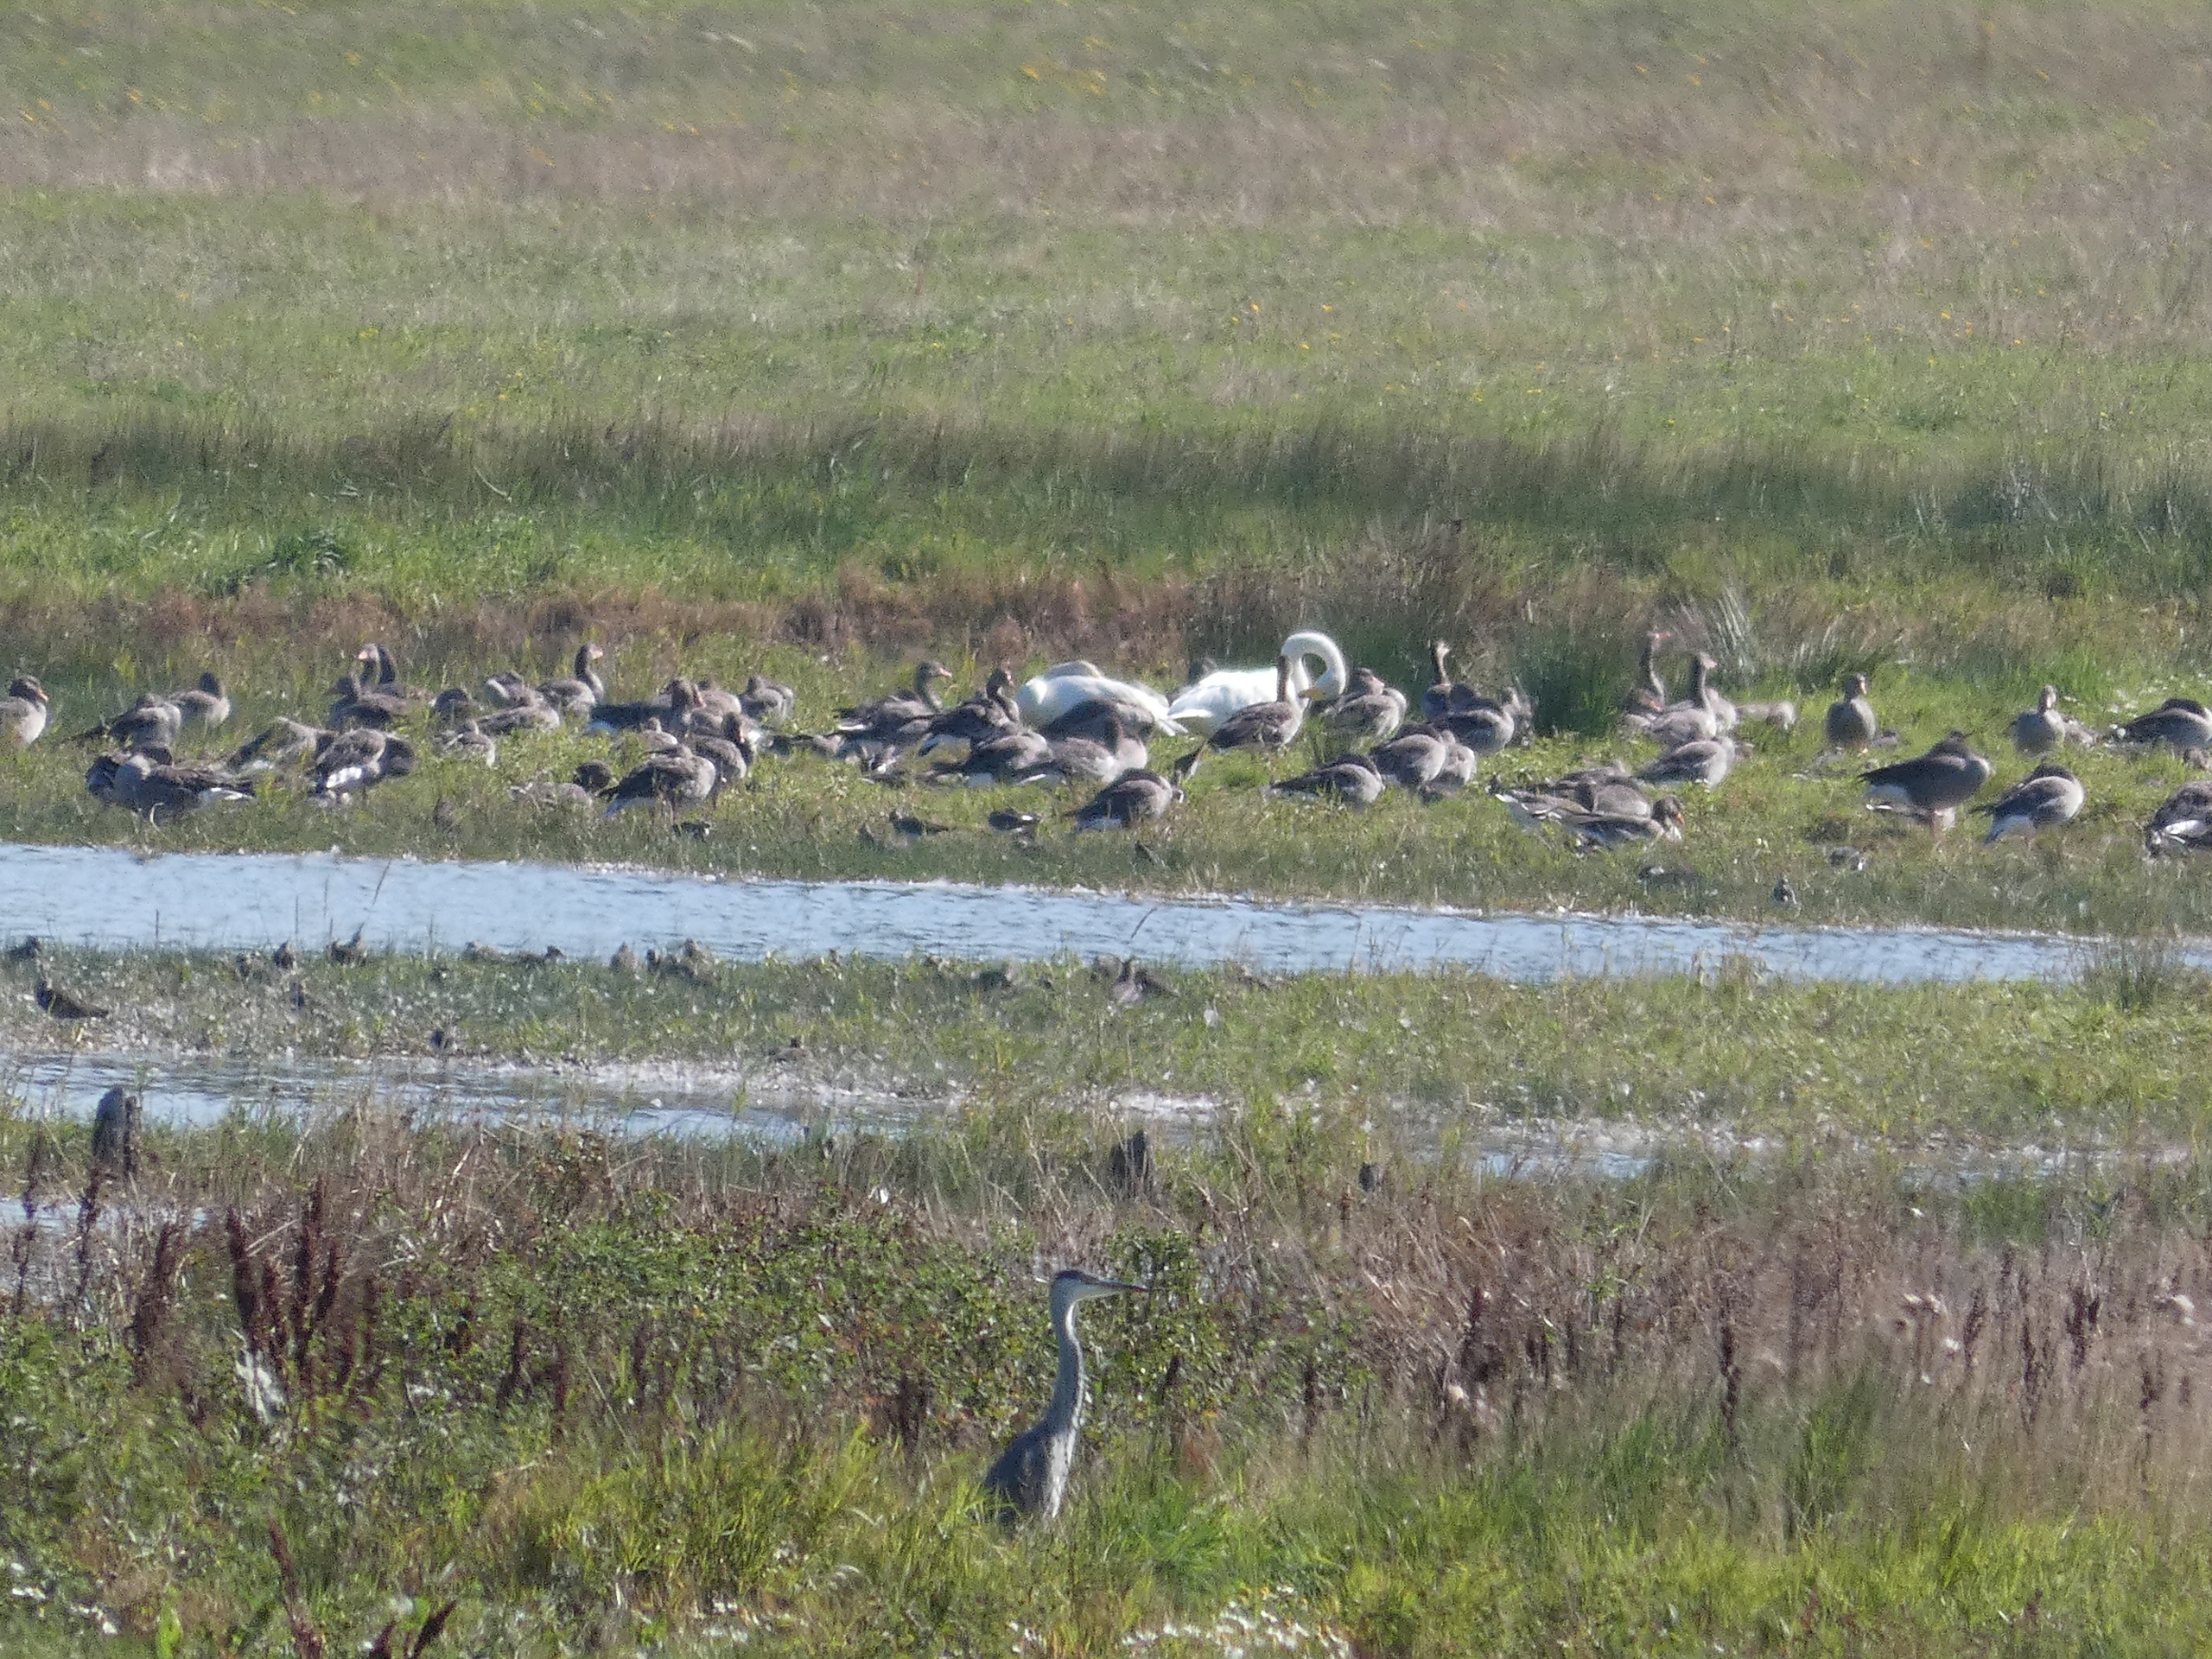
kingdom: Animalia
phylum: Chordata
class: Aves
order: Anseriformes
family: Anatidae
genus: Cygnus
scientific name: Cygnus cygnus
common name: Sangsvane
